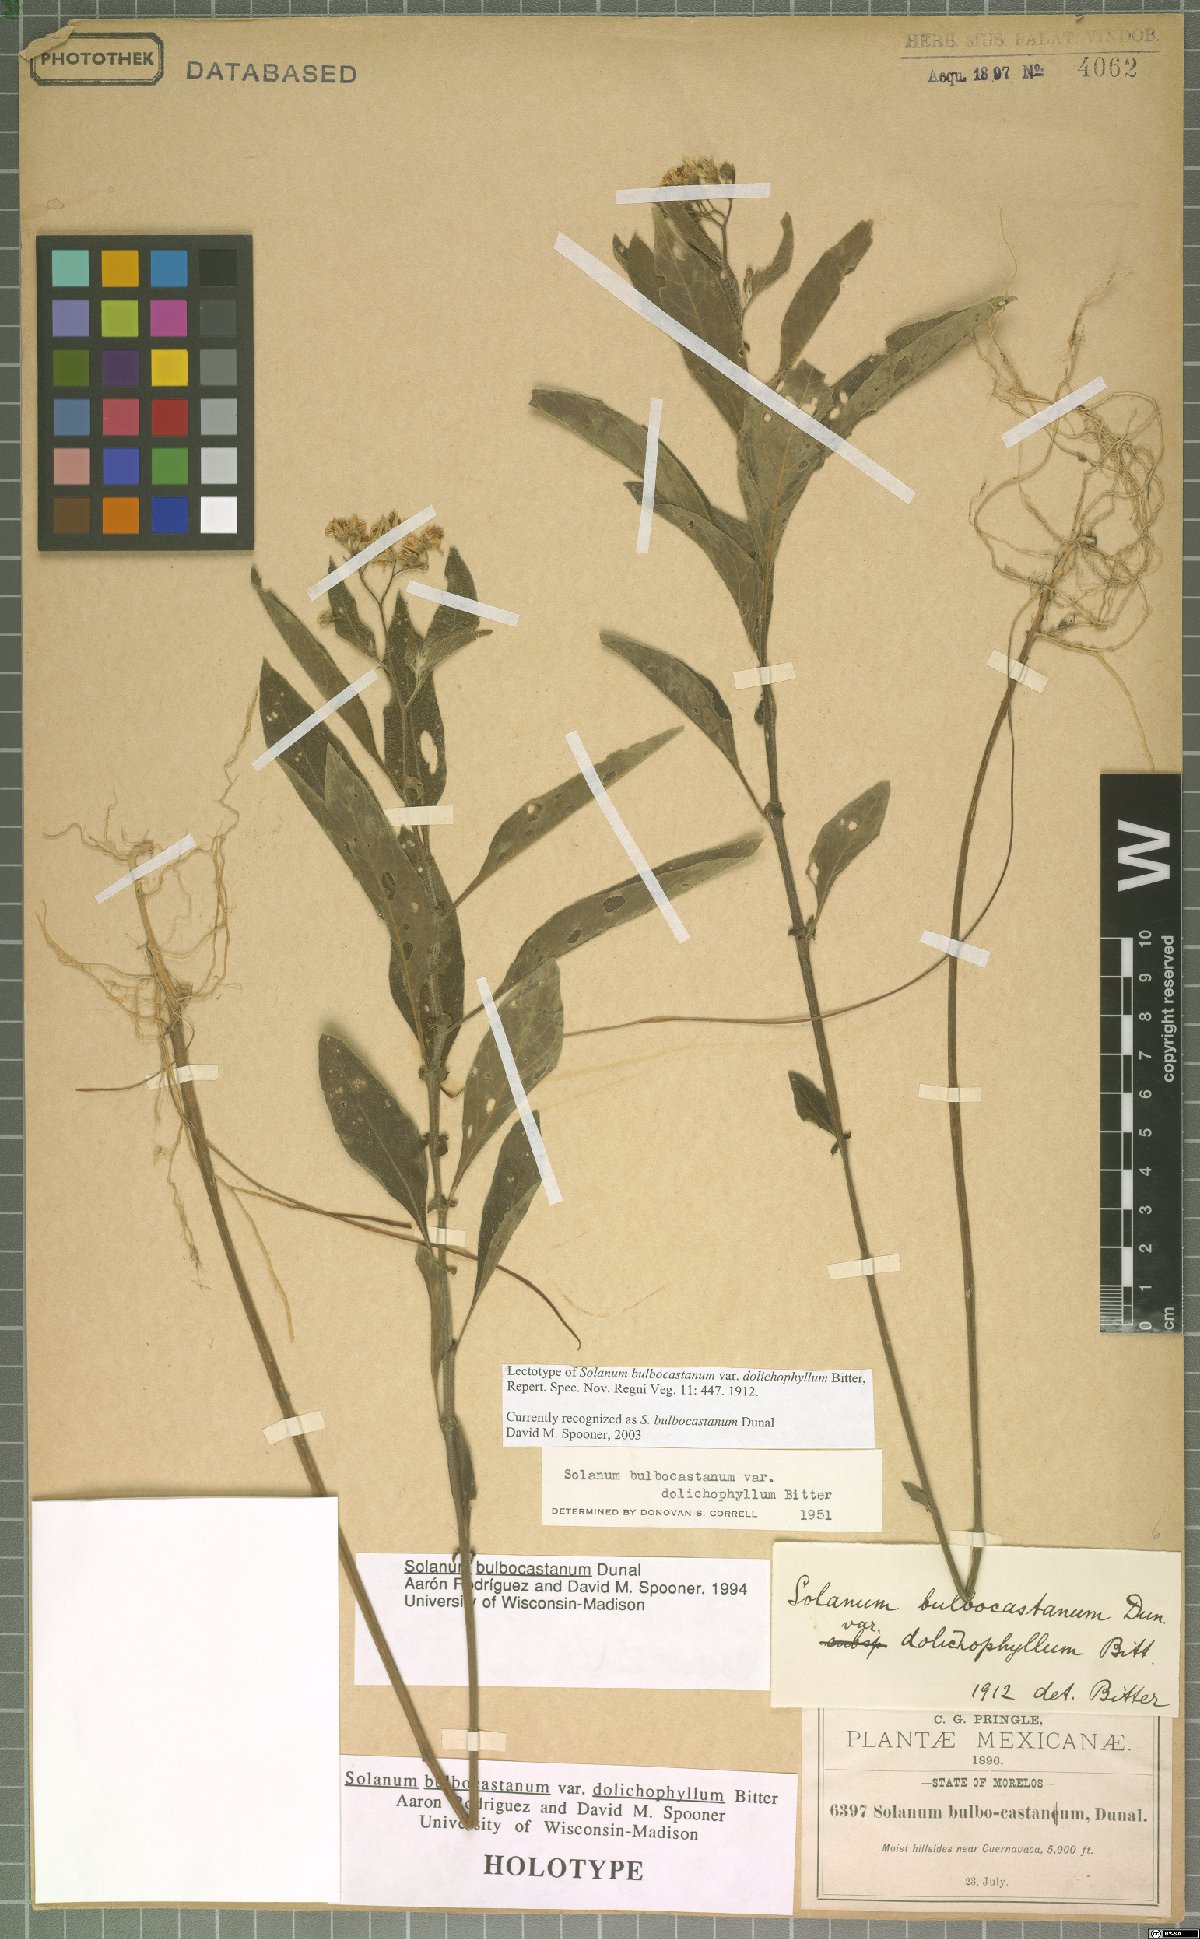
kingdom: Plantae
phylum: Tracheophyta
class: Magnoliopsida
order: Solanales
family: Solanaceae
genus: Solanum
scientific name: Solanum bulbocastanum
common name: Ornamental nightshade
